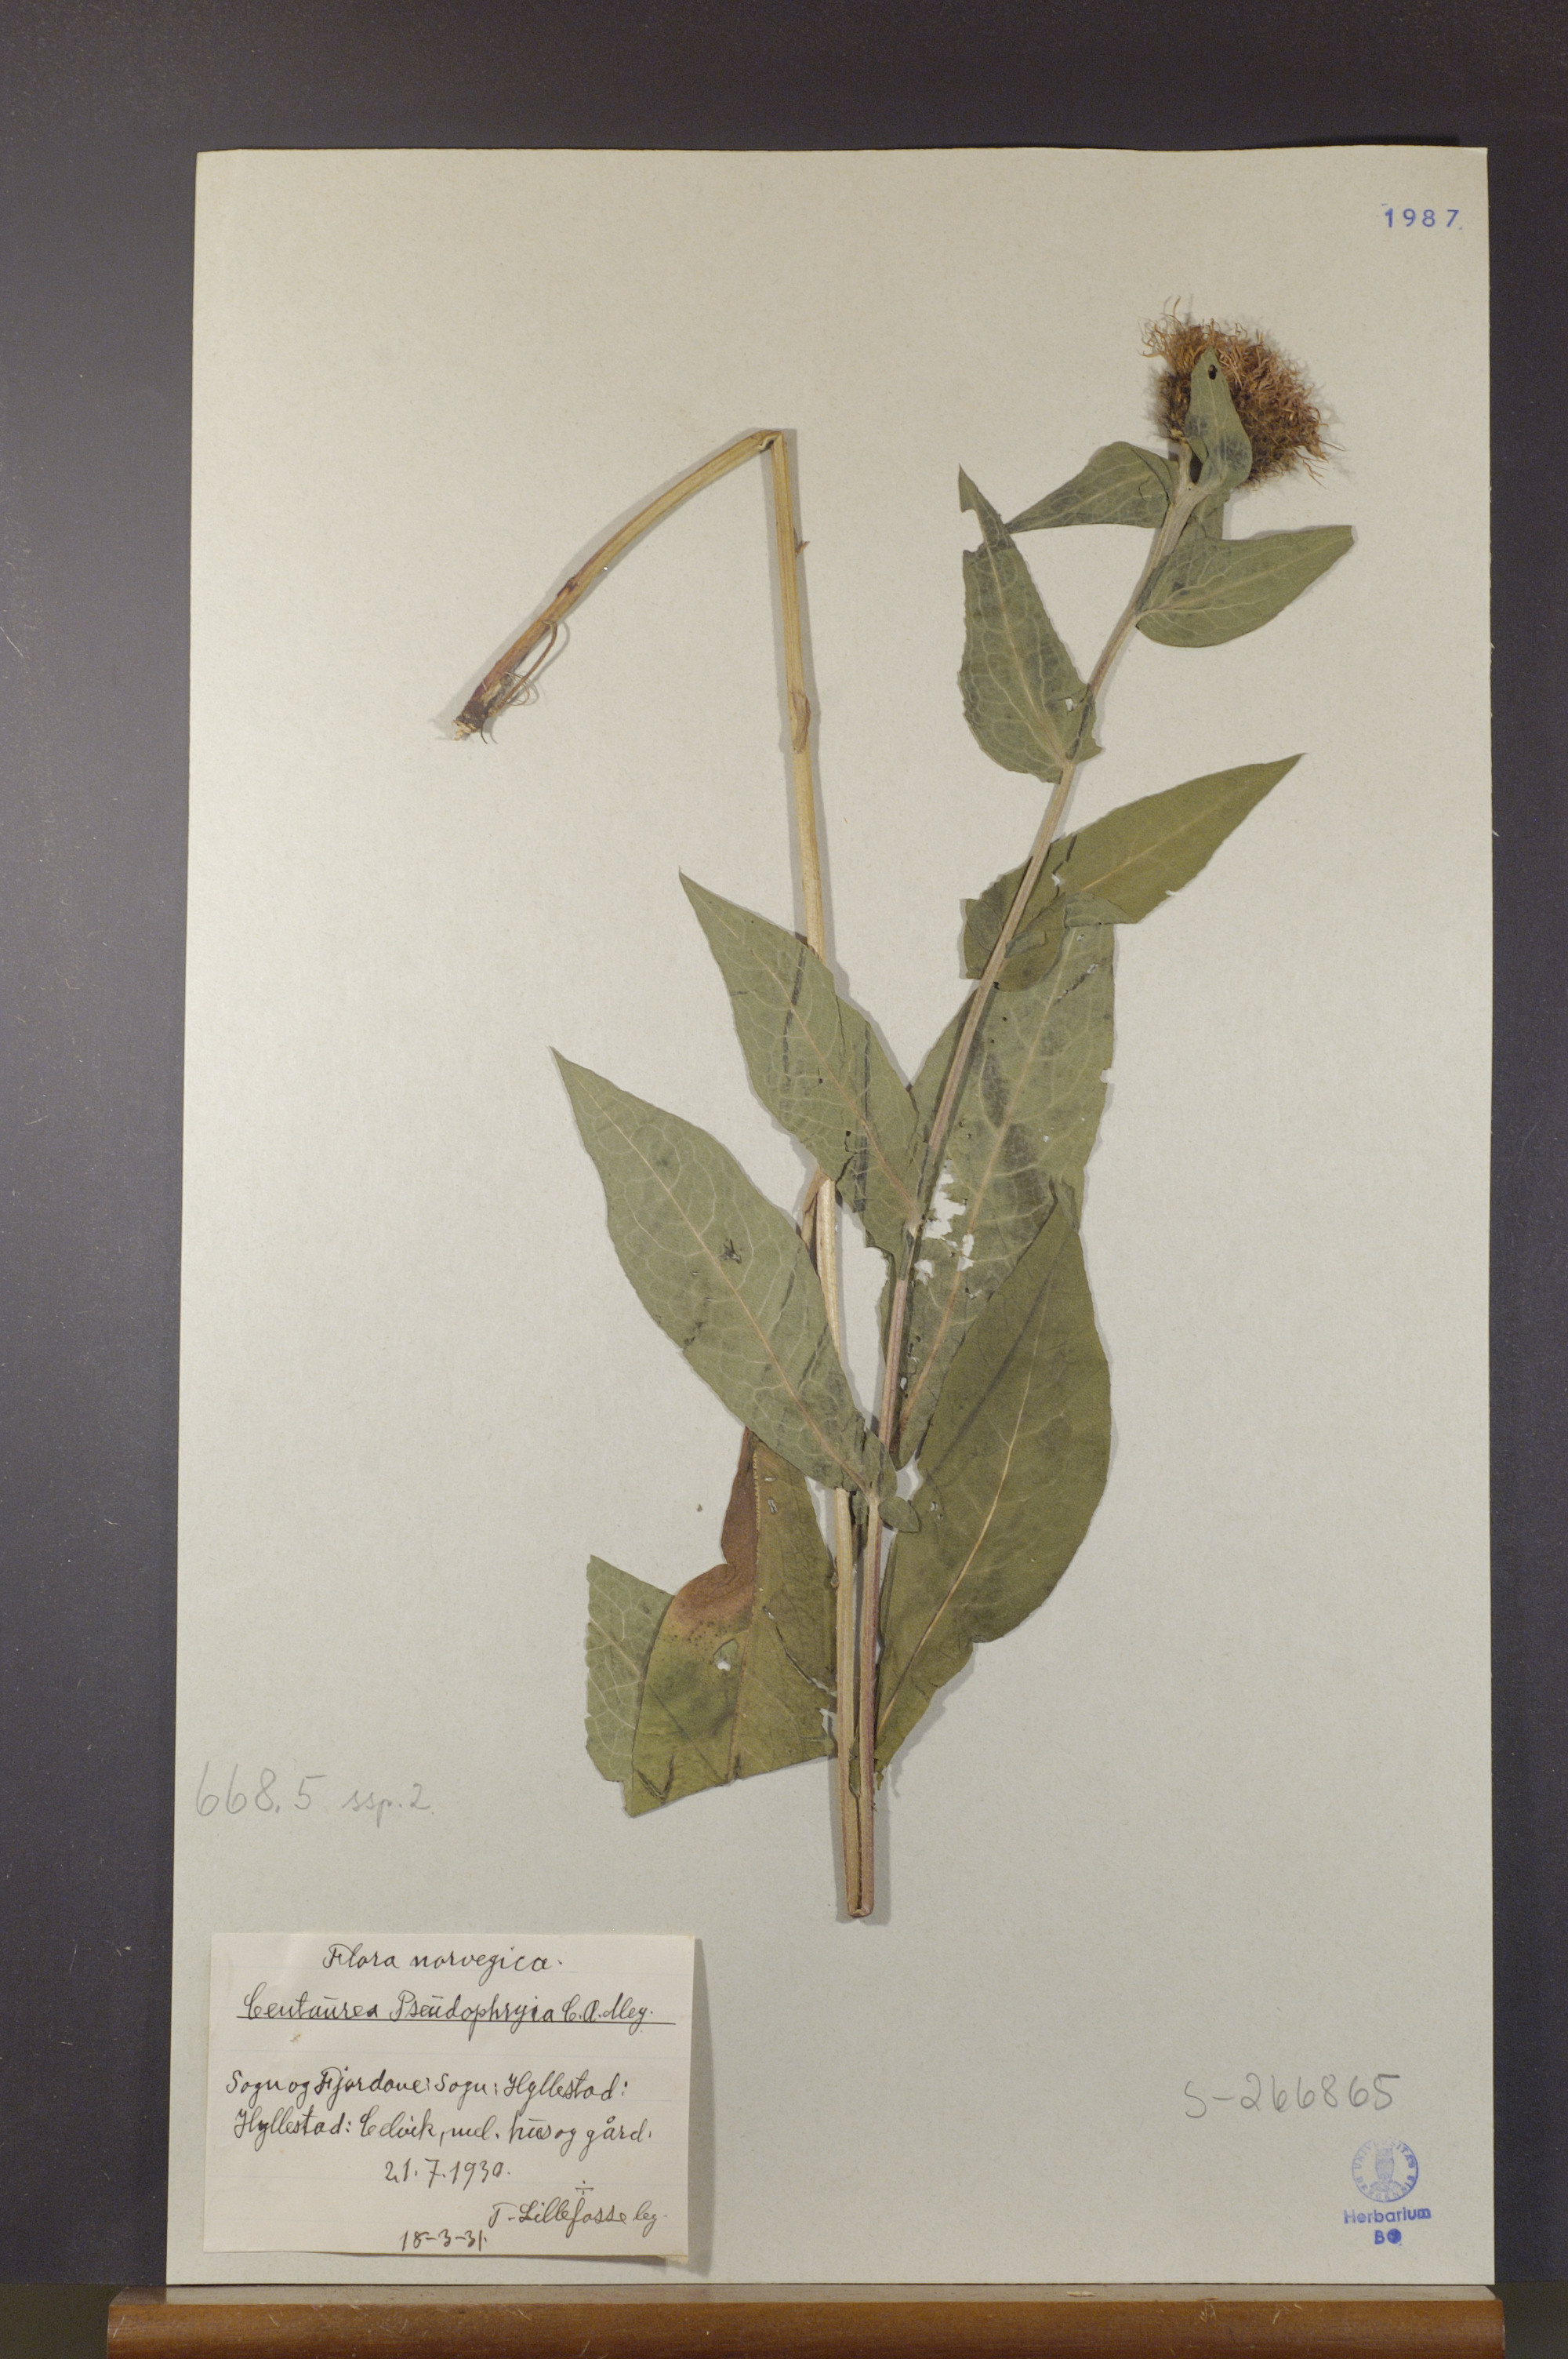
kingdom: Plantae
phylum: Tracheophyta
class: Magnoliopsida
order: Asterales
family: Asteraceae
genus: Centaurea
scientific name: Centaurea pseudophrygia
